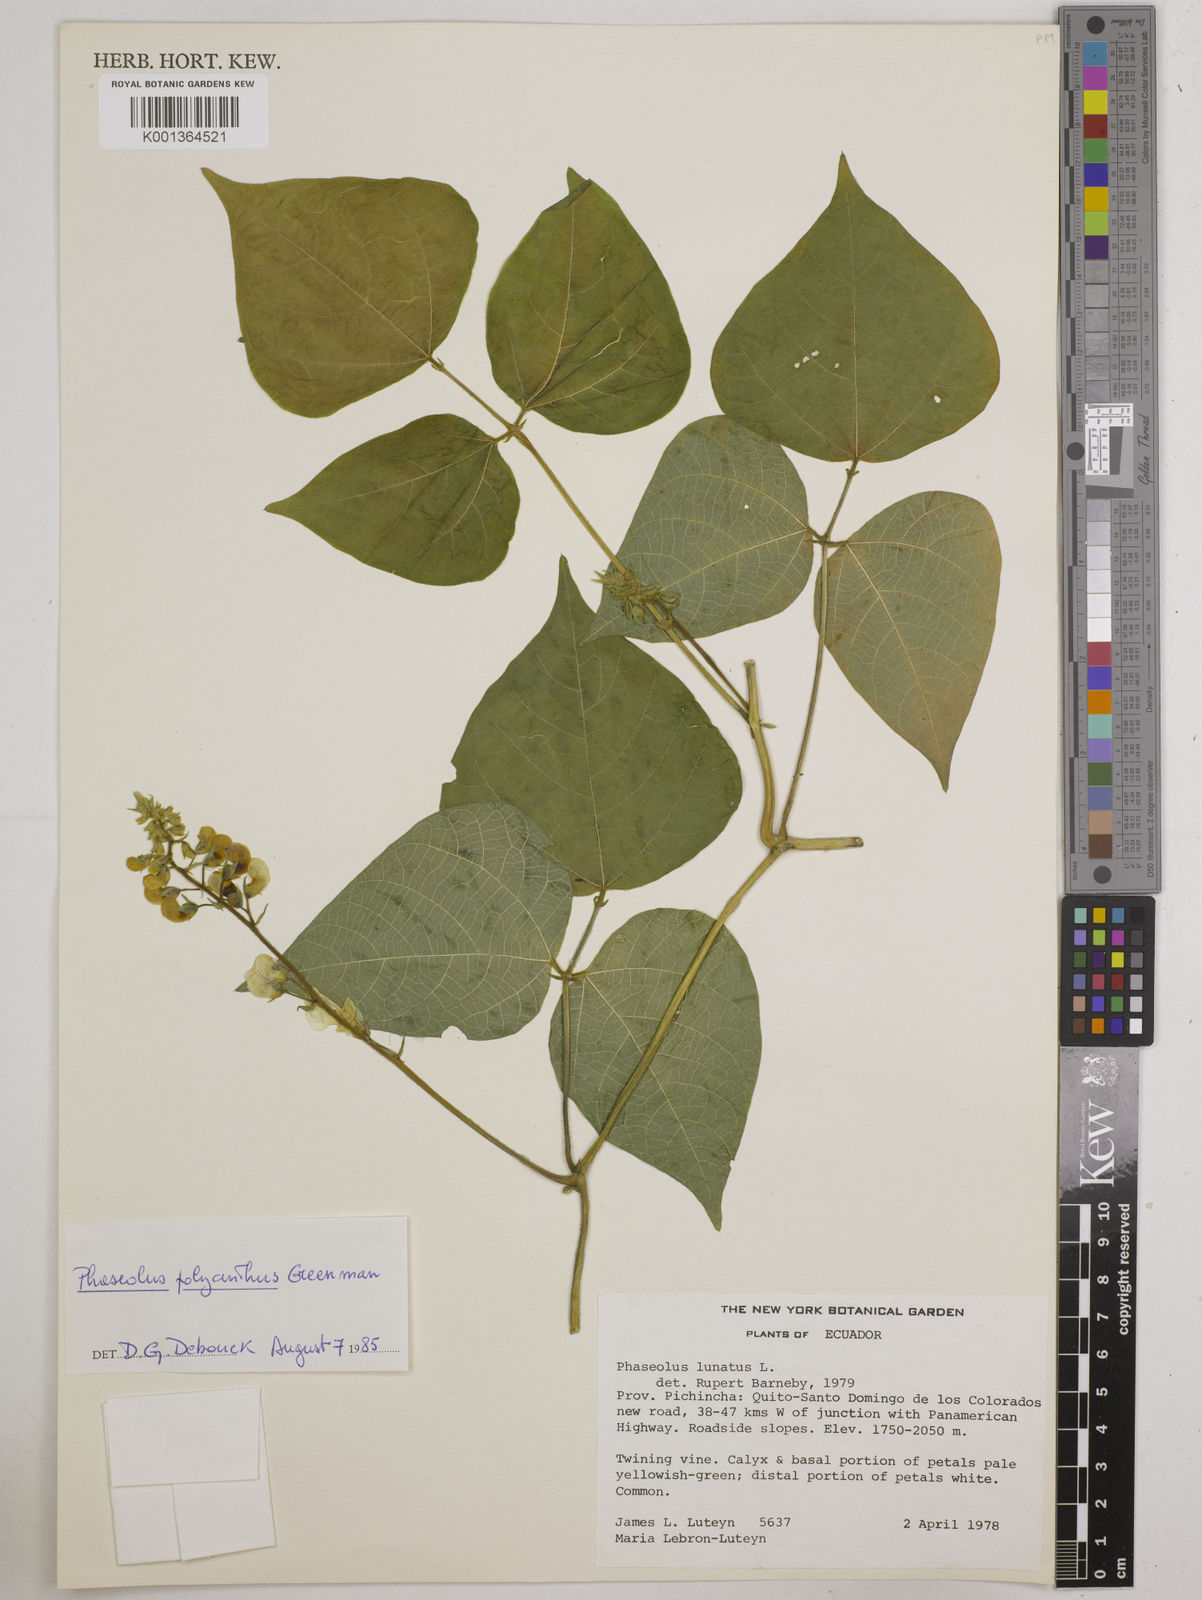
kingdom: Plantae
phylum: Tracheophyta
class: Magnoliopsida
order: Fabales
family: Fabaceae
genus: Phaseolus
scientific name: Phaseolus dumosus
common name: Year bean
